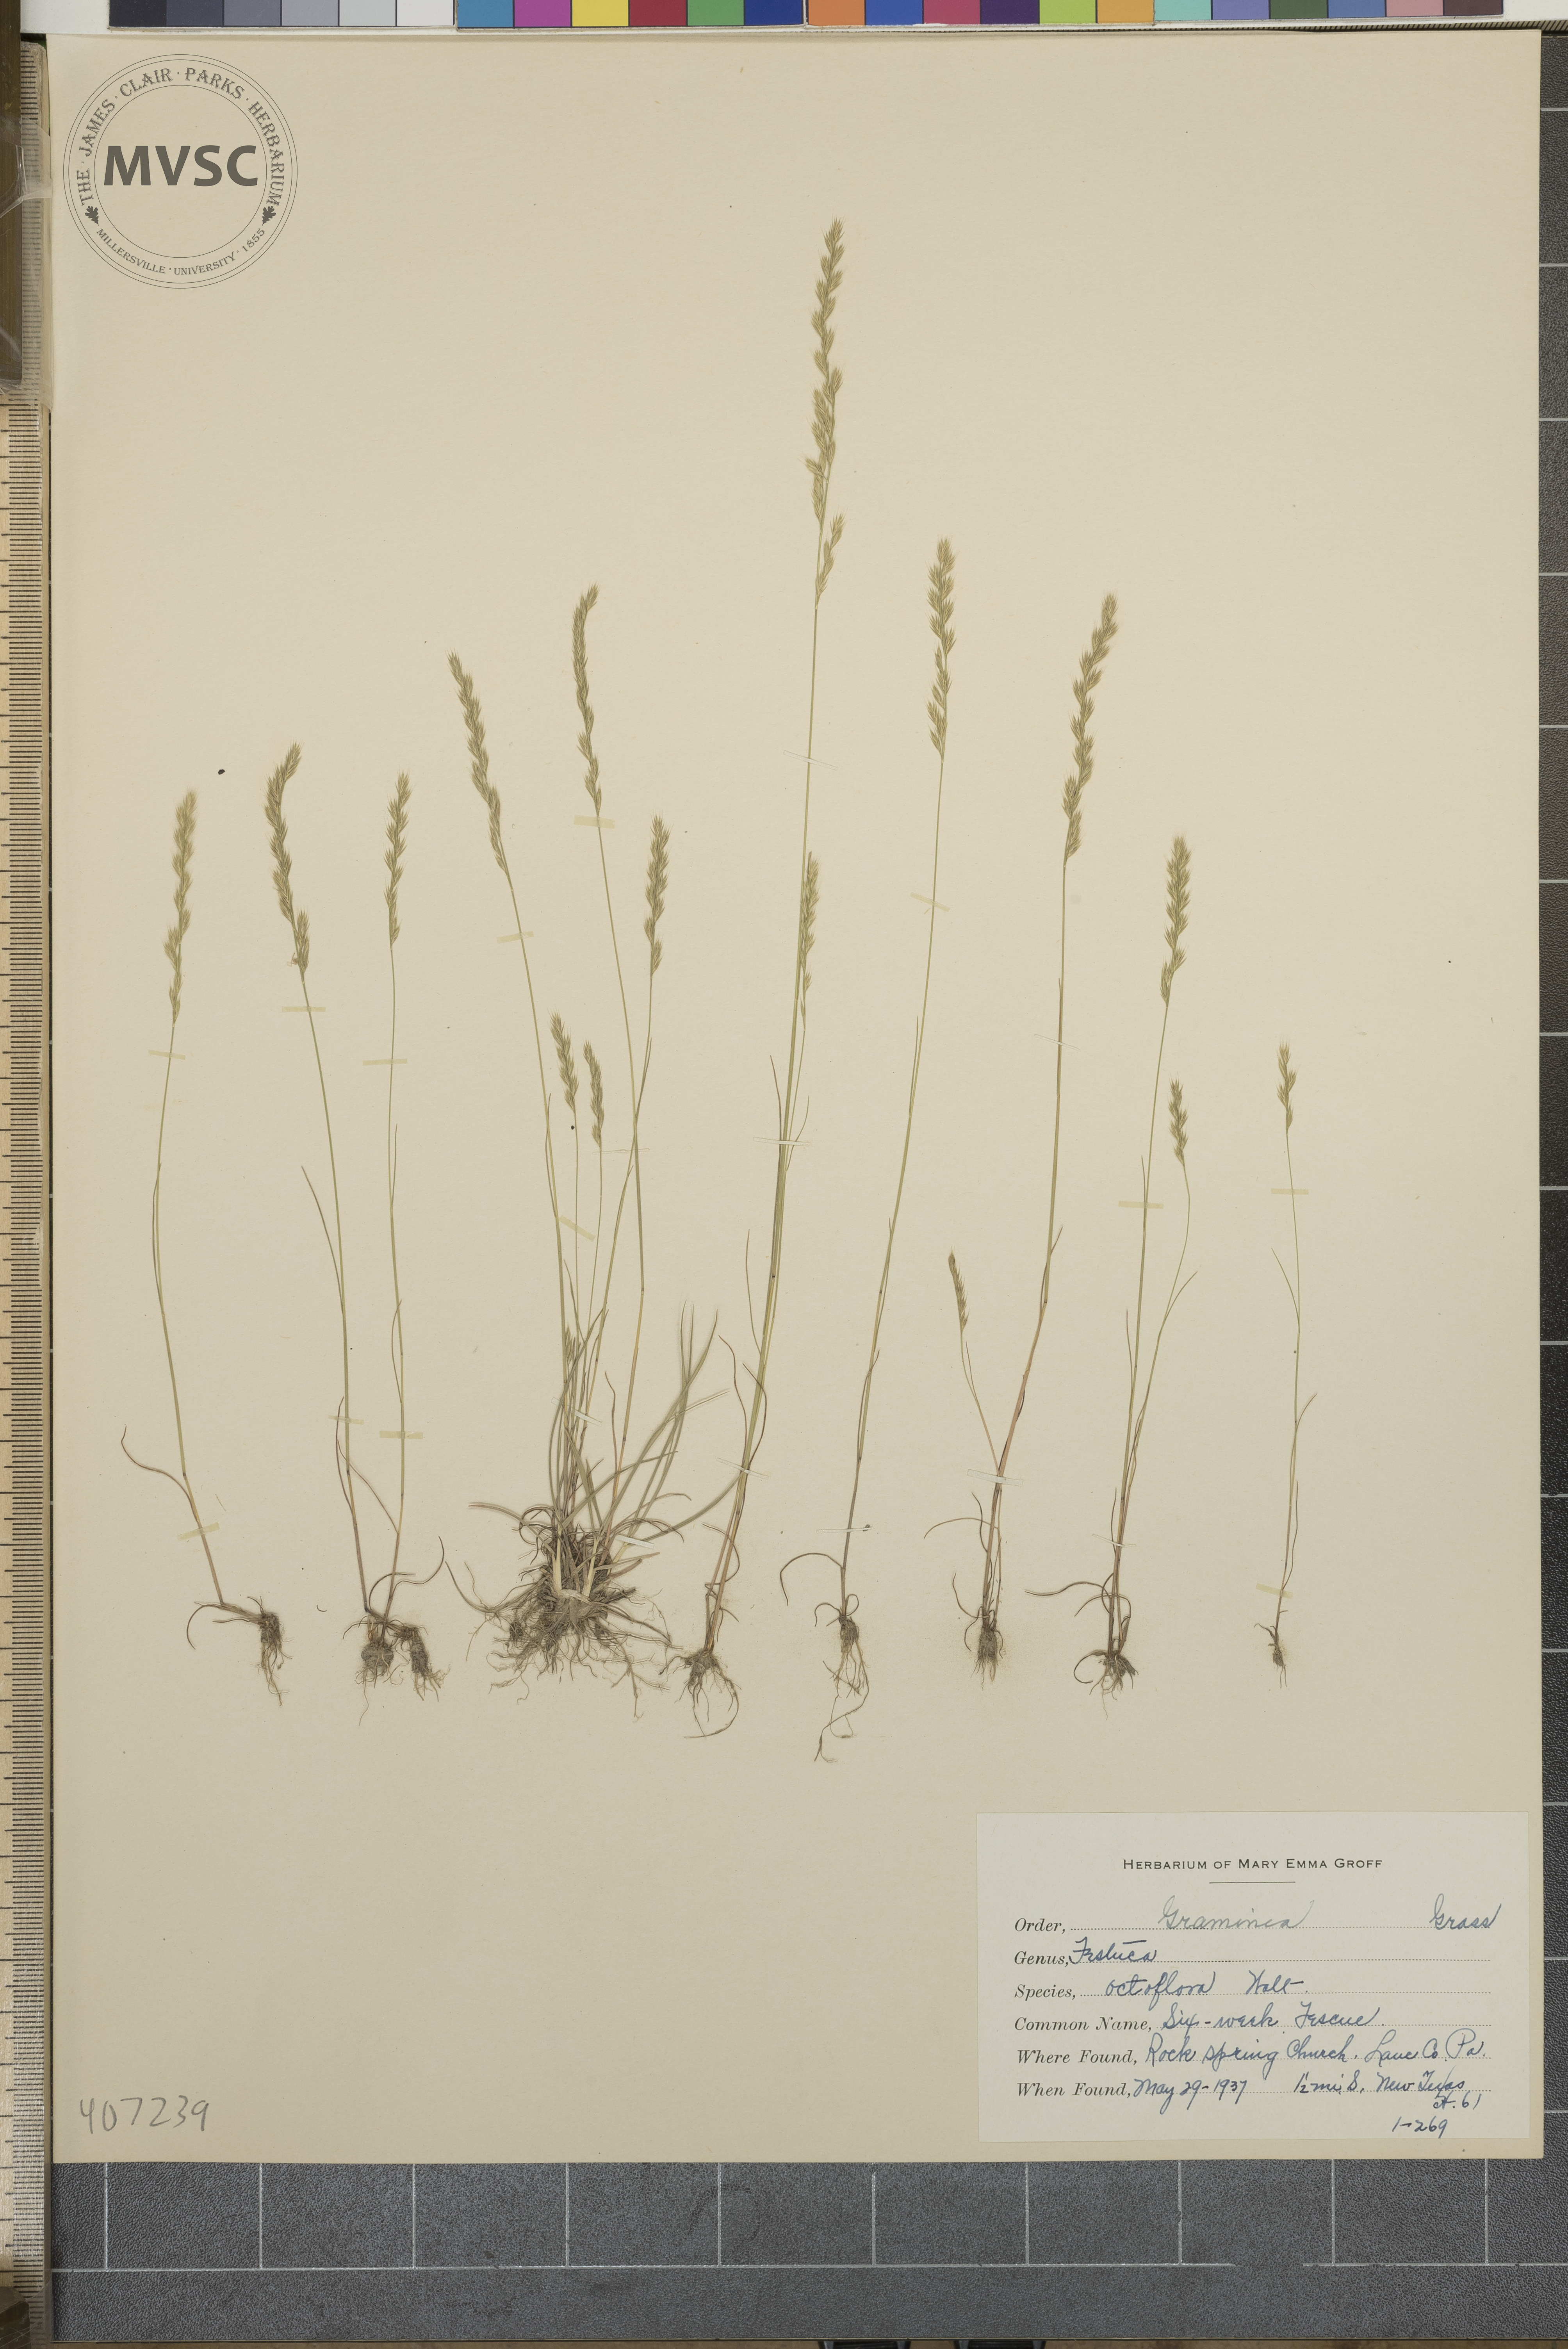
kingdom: Plantae
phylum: Tracheophyta
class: Liliopsida
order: Poales
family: Poaceae
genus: Festuca
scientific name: Festuca octoflora
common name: Sixweeks grass
